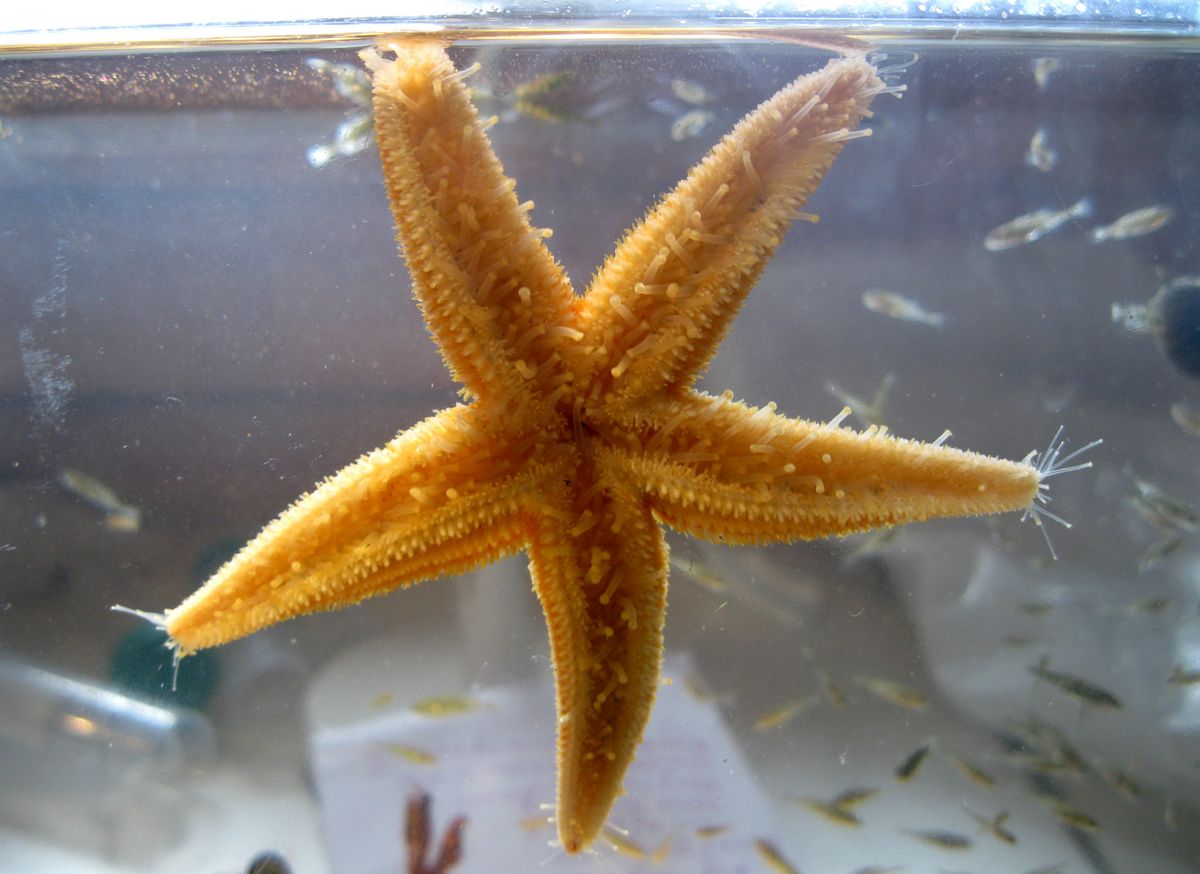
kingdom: Animalia
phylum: Echinodermata
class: Asteroidea
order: Forcipulatida
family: Asteriidae
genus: Asterias
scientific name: Asterias rubens
